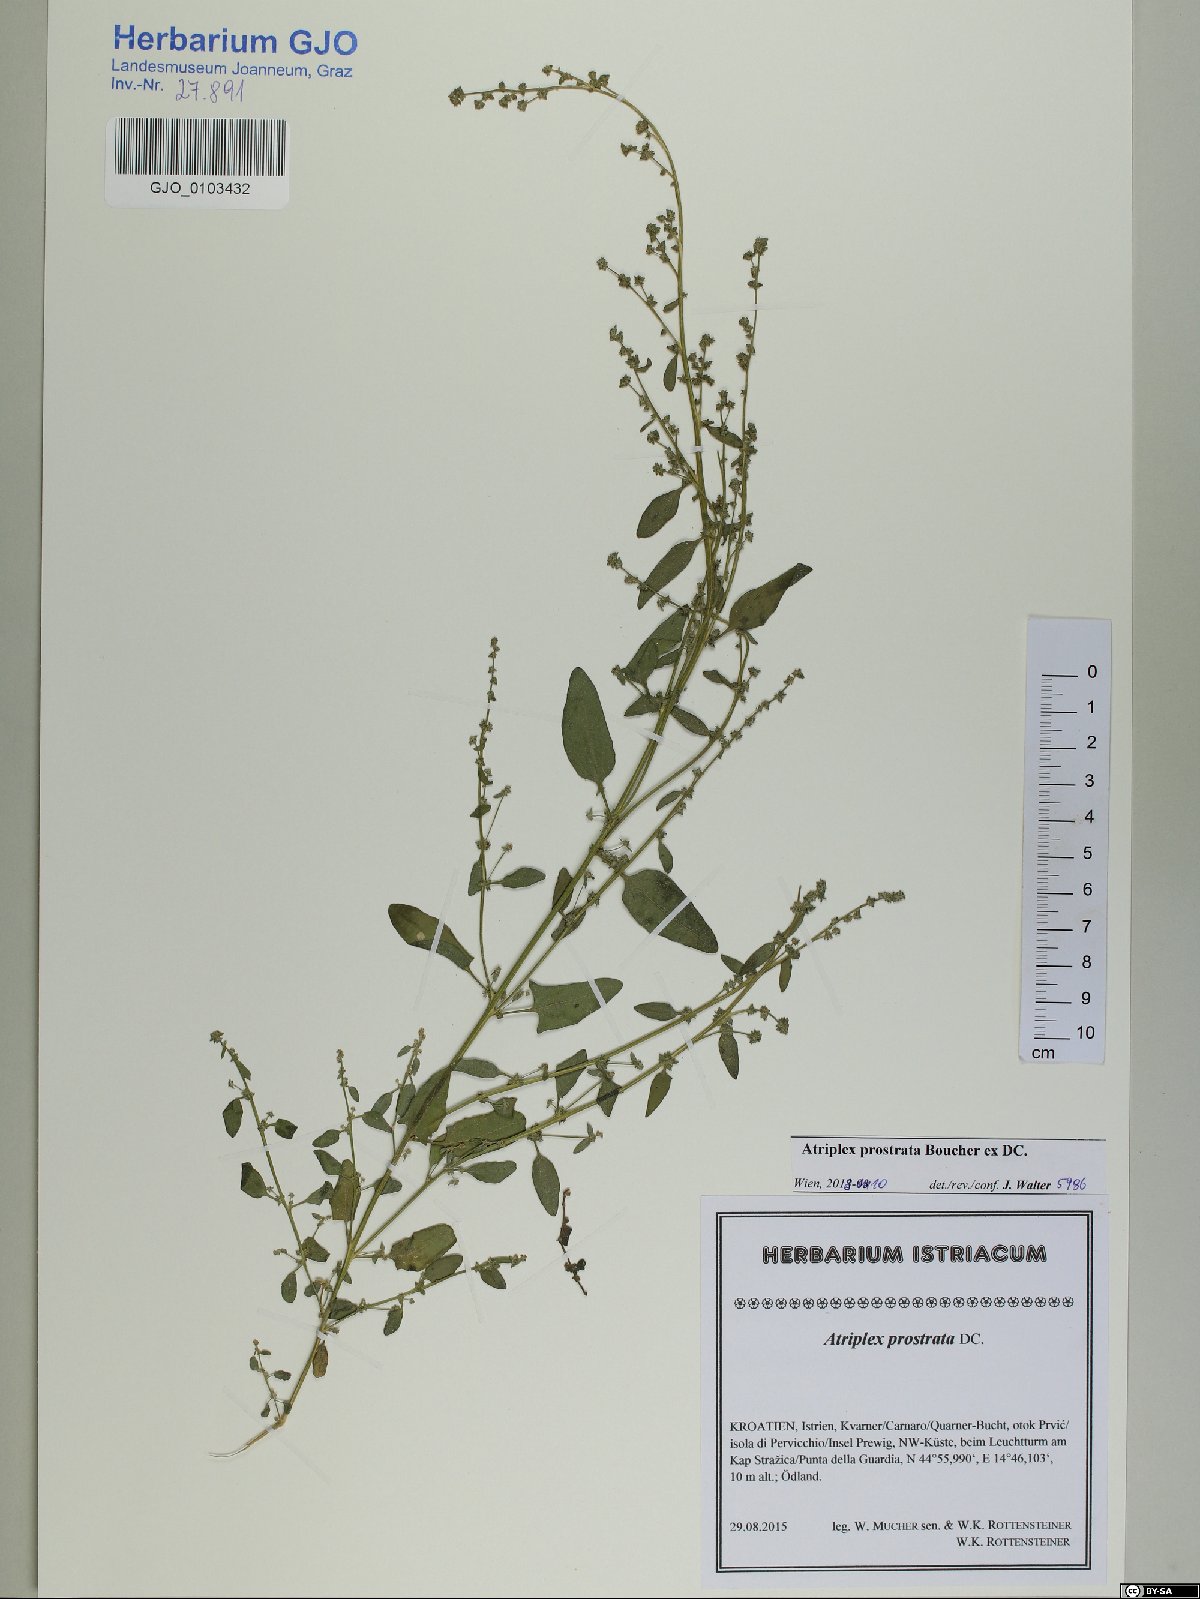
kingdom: Plantae
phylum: Tracheophyta
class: Magnoliopsida
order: Caryophyllales
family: Amaranthaceae
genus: Atriplex
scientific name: Atriplex prostrata
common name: Spear-leaved orache
